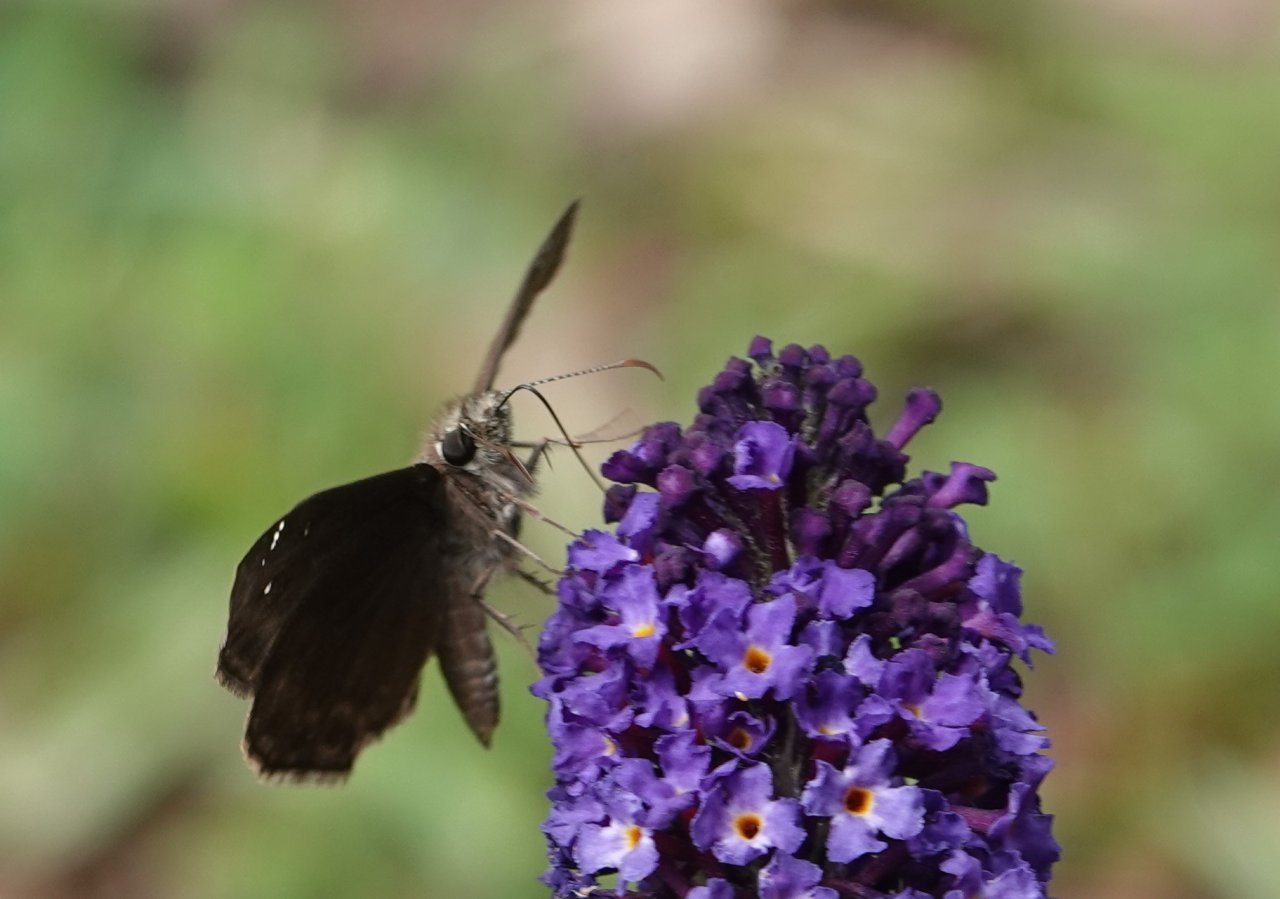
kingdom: Animalia
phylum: Arthropoda
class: Insecta
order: Lepidoptera
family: Hesperiidae
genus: Gesta
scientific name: Gesta
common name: Horace's Duskywing
